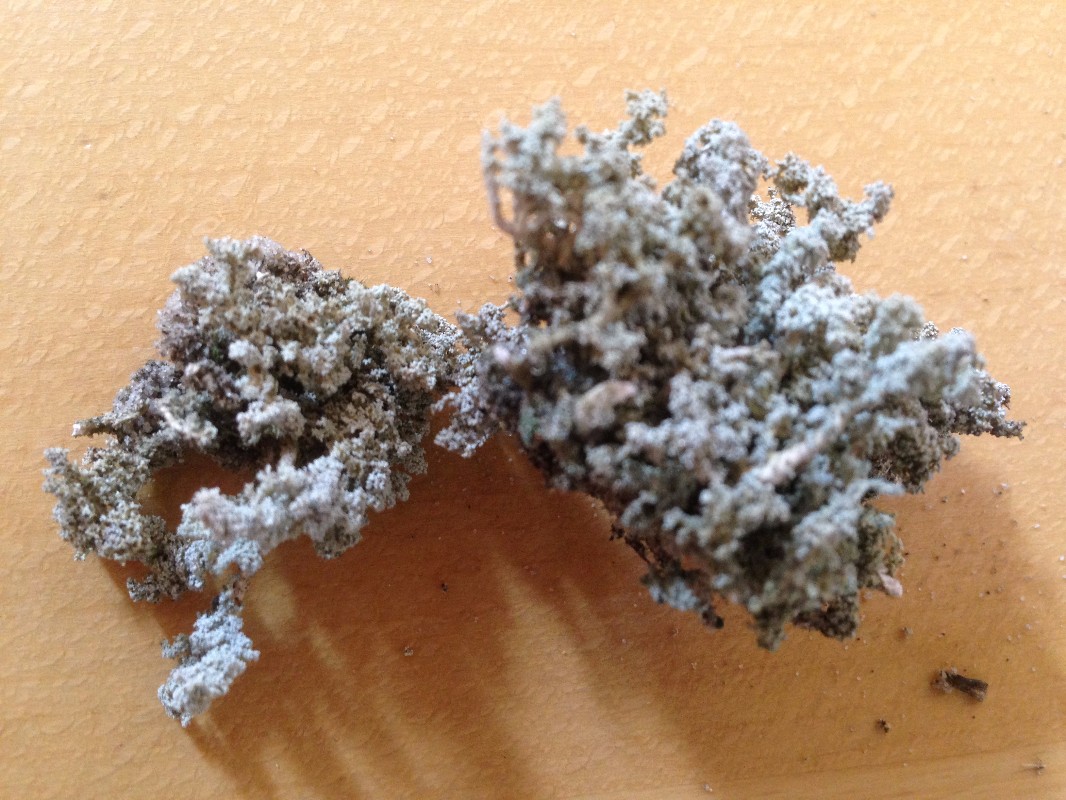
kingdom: Fungi
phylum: Ascomycota
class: Lecanoromycetes
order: Lecanorales
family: Stereocaulaceae
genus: Stereocaulon
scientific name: Stereocaulon saxatile
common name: klit-korallav
